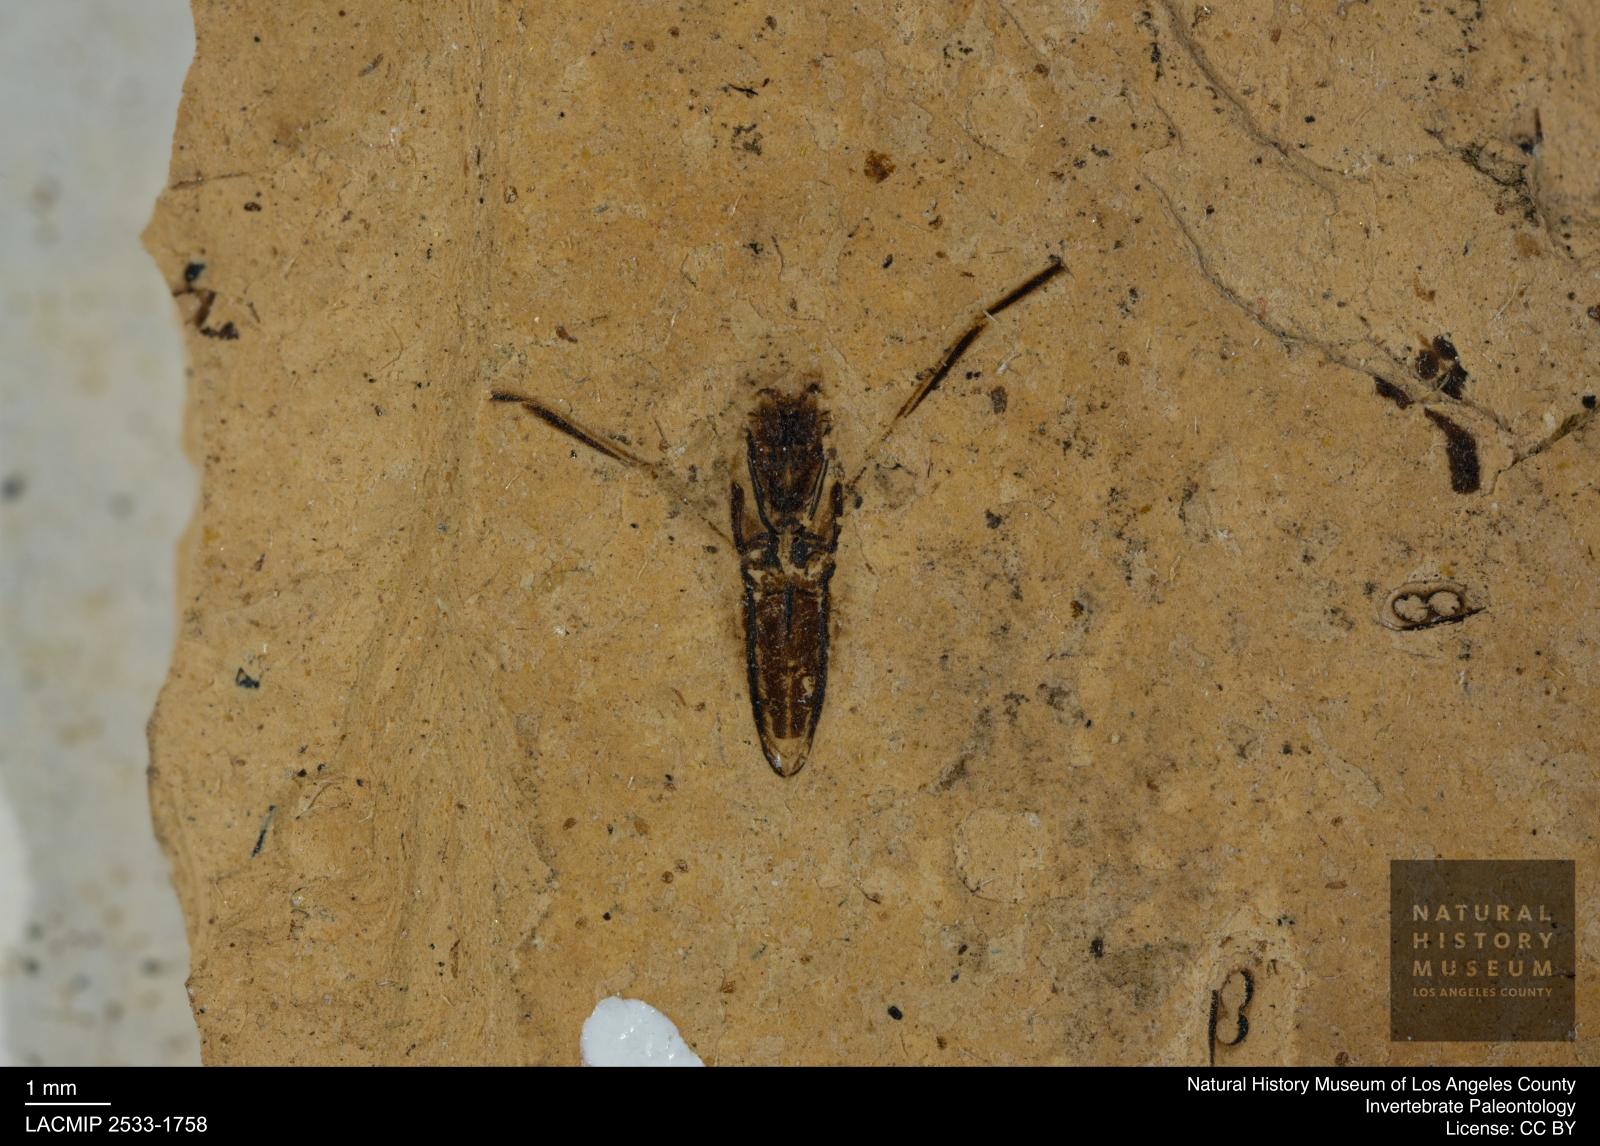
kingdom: Animalia
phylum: Arthropoda
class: Insecta
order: Hemiptera
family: Notonectidae
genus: Notonecta
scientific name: Notonecta
